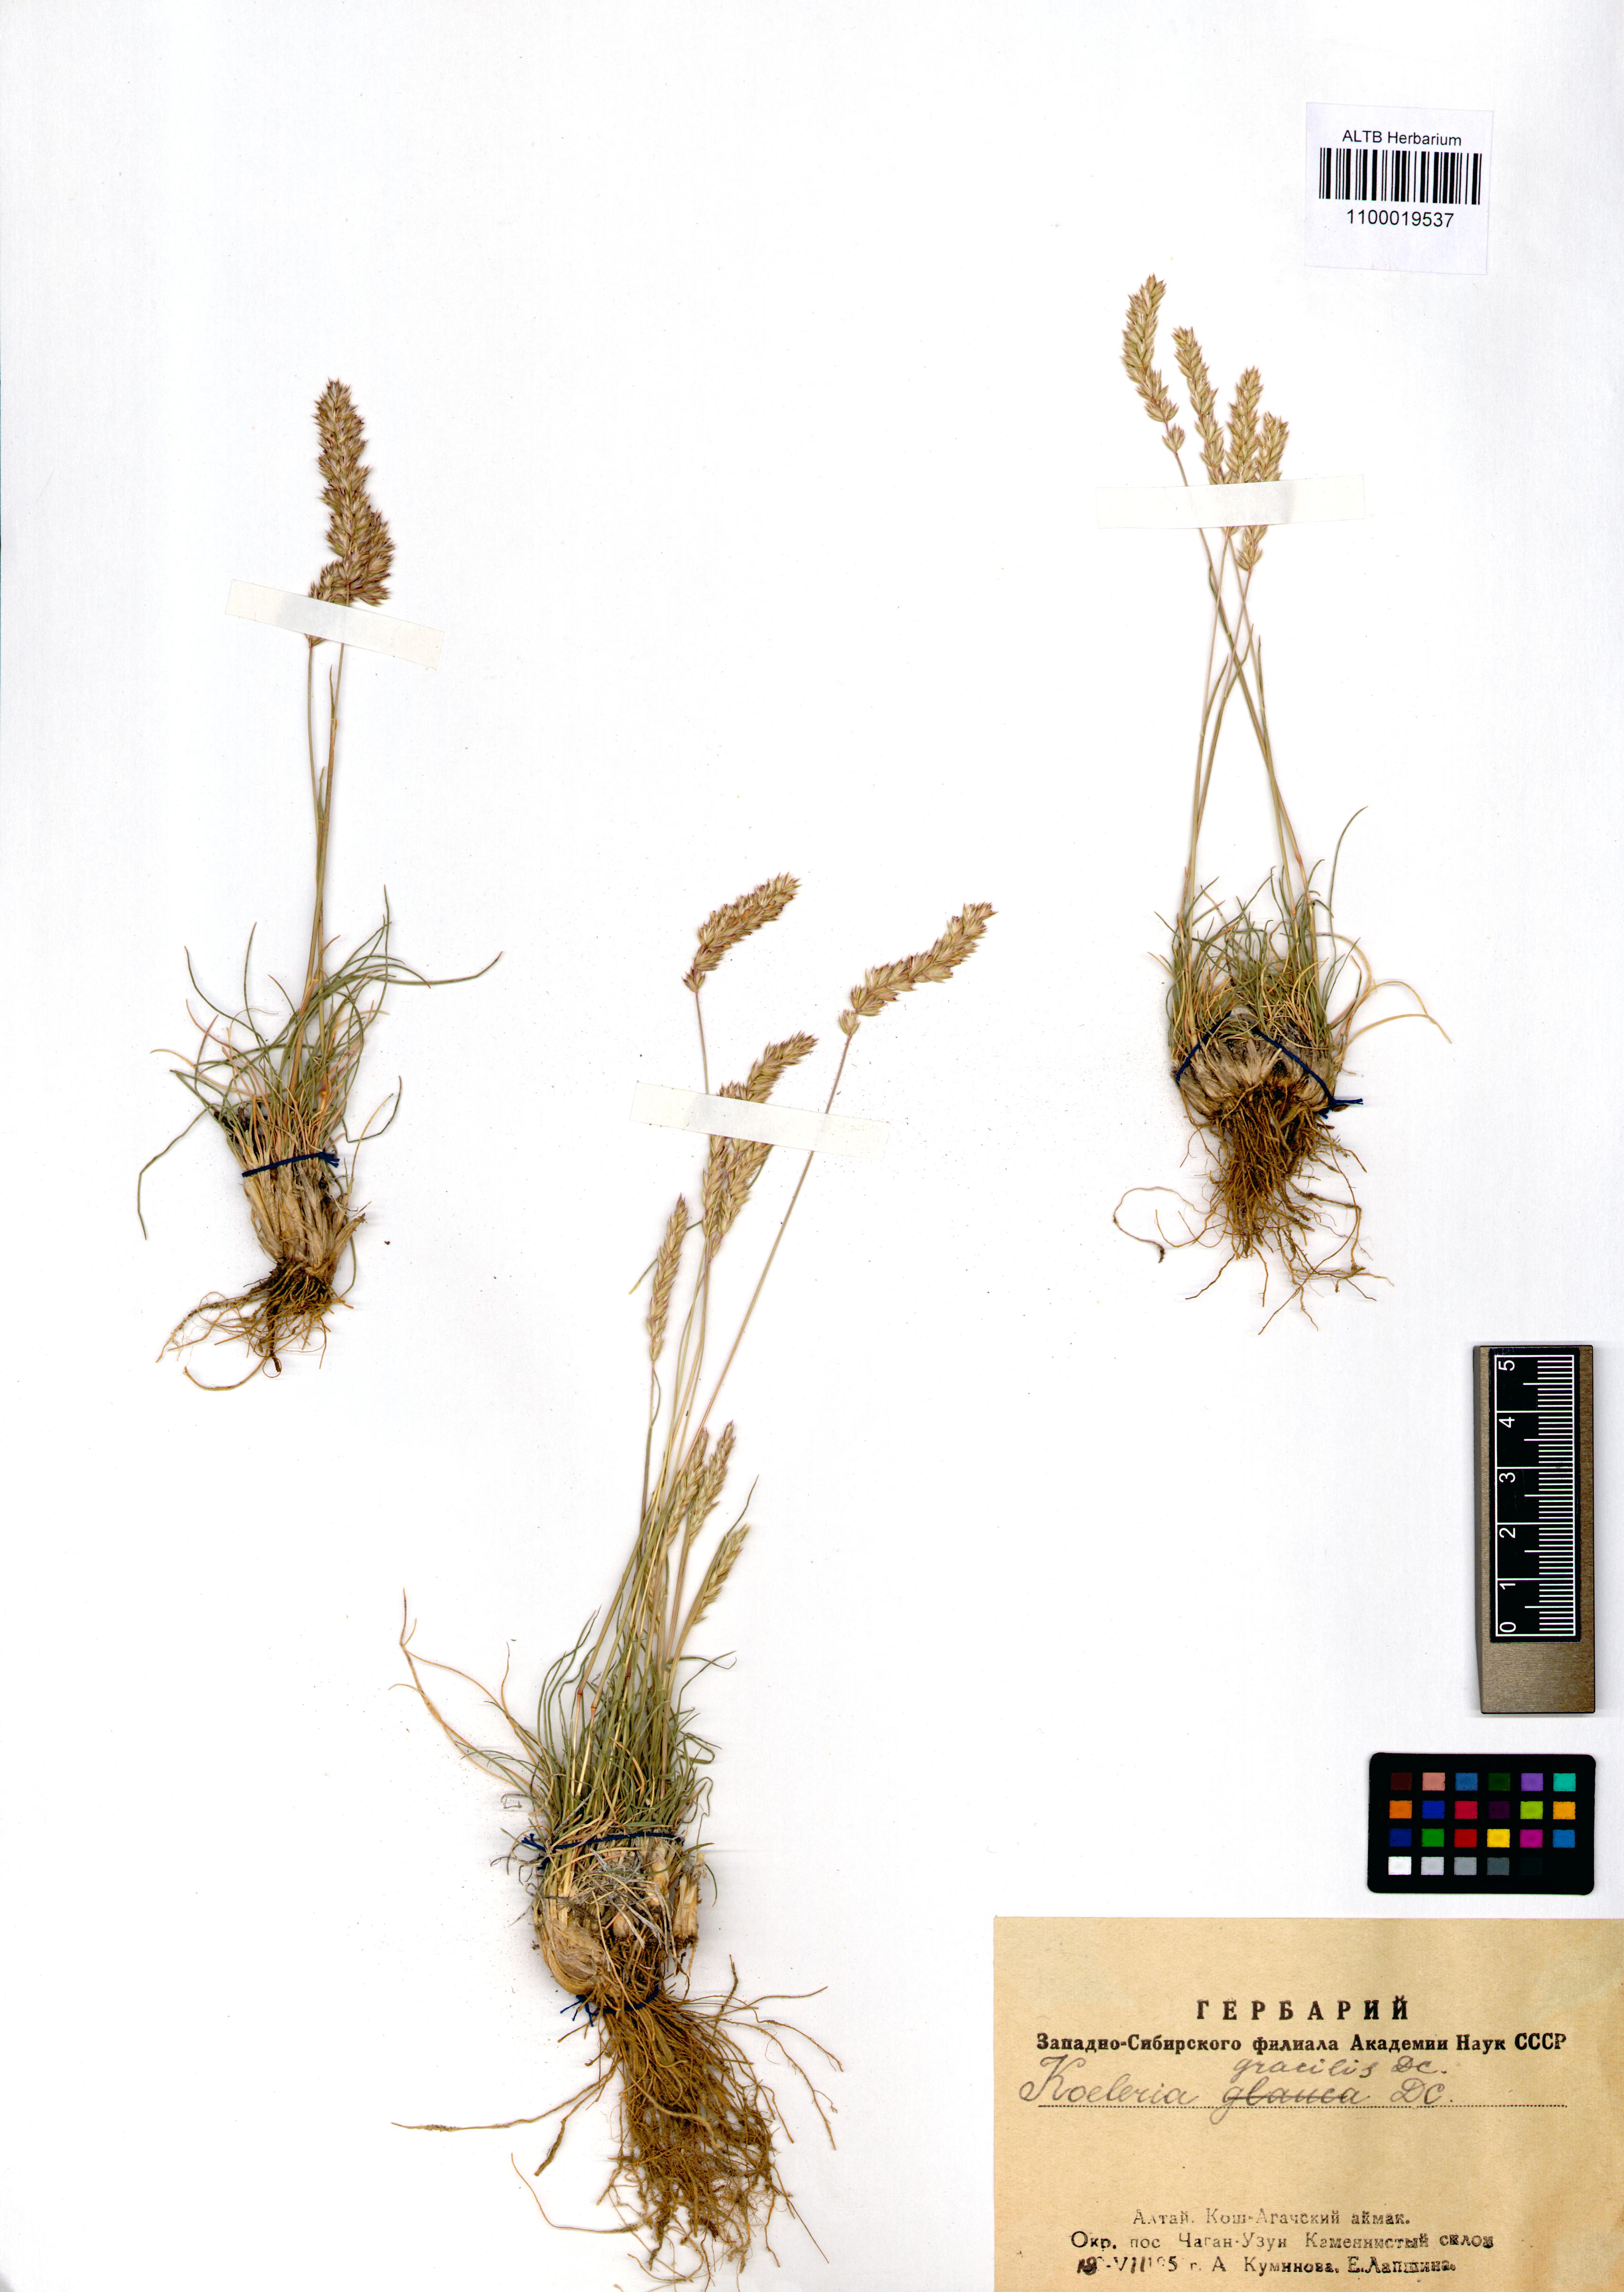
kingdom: Plantae
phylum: Tracheophyta
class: Liliopsida
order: Poales
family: Poaceae
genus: Koeleria
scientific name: Koeleria macrantha
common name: Crested hair-grass
